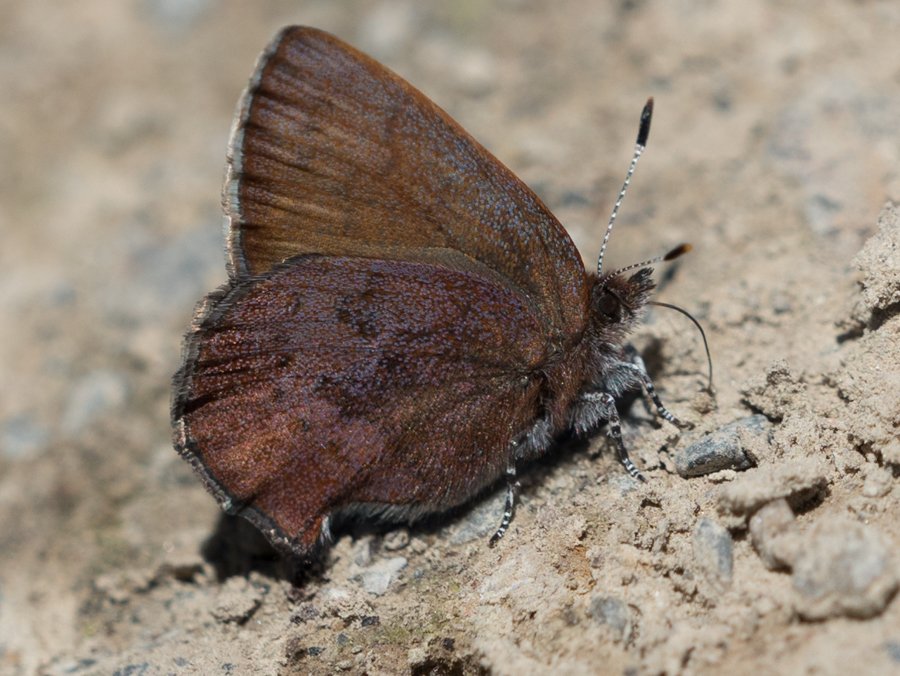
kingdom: Animalia
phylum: Arthropoda
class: Insecta
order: Lepidoptera
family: Lycaenidae
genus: Incisalia
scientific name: Incisalia irioides
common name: Brown Elfin
